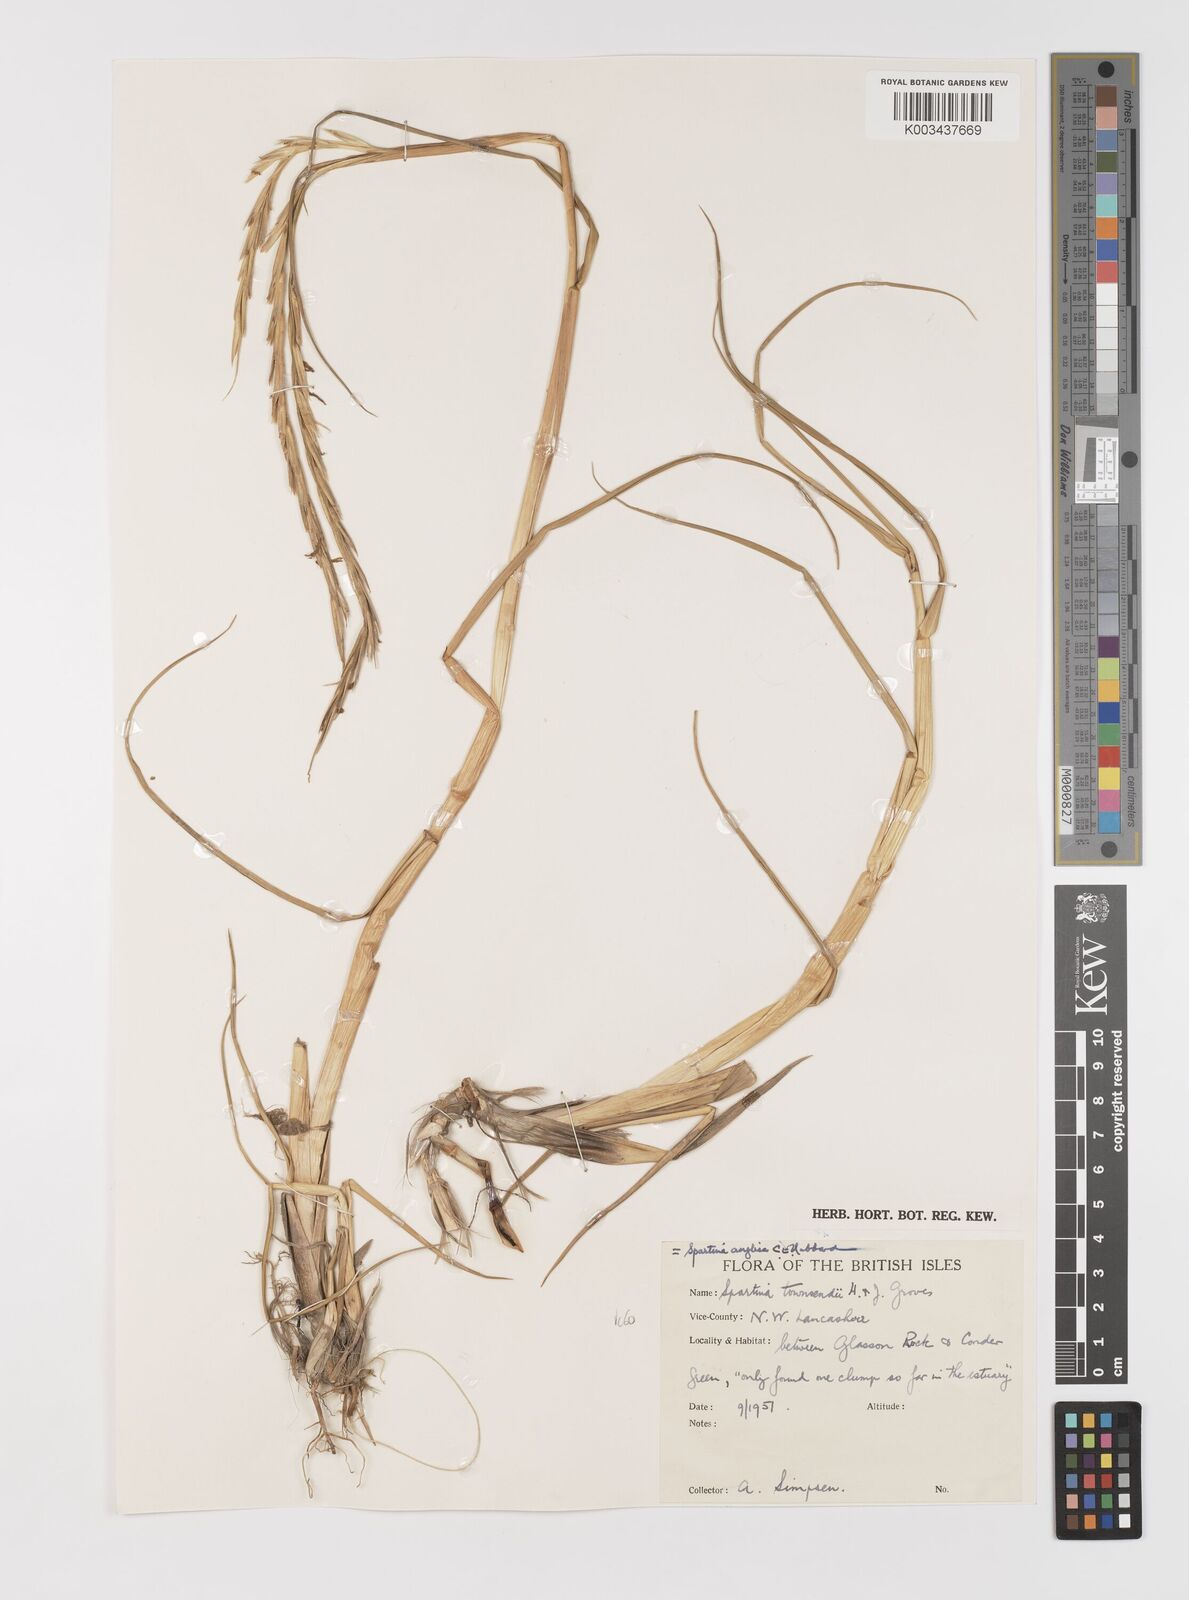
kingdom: Plantae
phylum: Tracheophyta
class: Liliopsida
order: Poales
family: Poaceae
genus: Sporobolus
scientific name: Sporobolus anglicus
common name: English cordgrass
